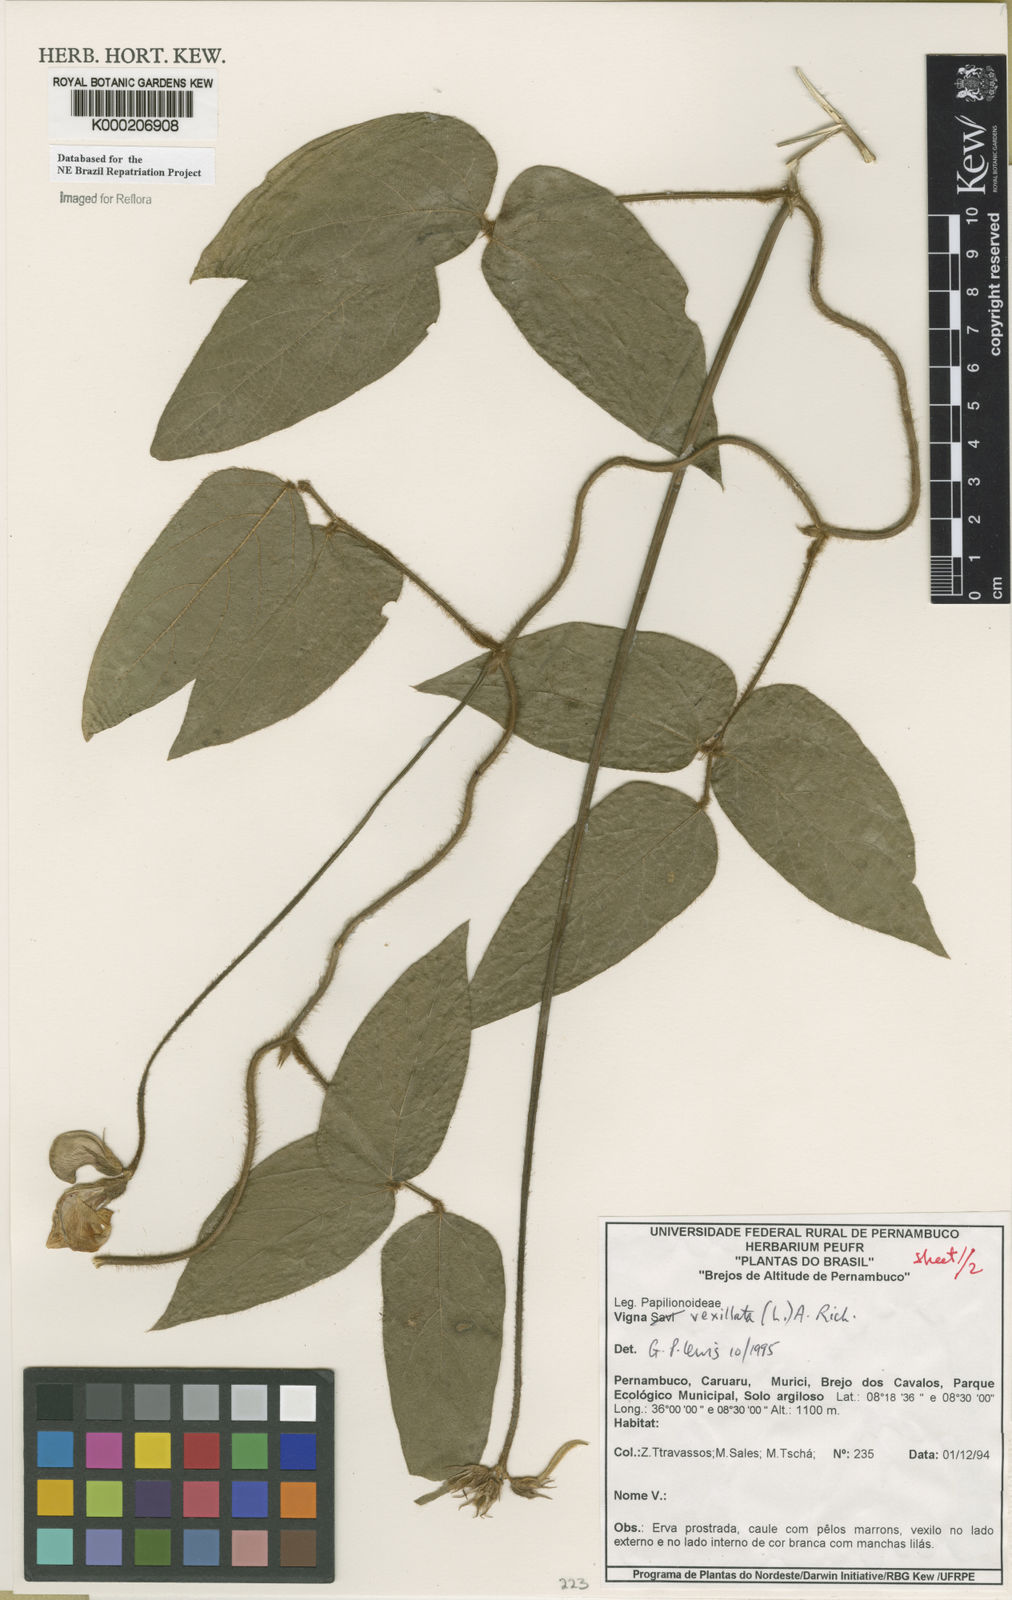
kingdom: Plantae
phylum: Tracheophyta
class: Magnoliopsida
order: Fabales
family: Fabaceae
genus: Vigna
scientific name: Vigna vexillata
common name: Zombi pea
